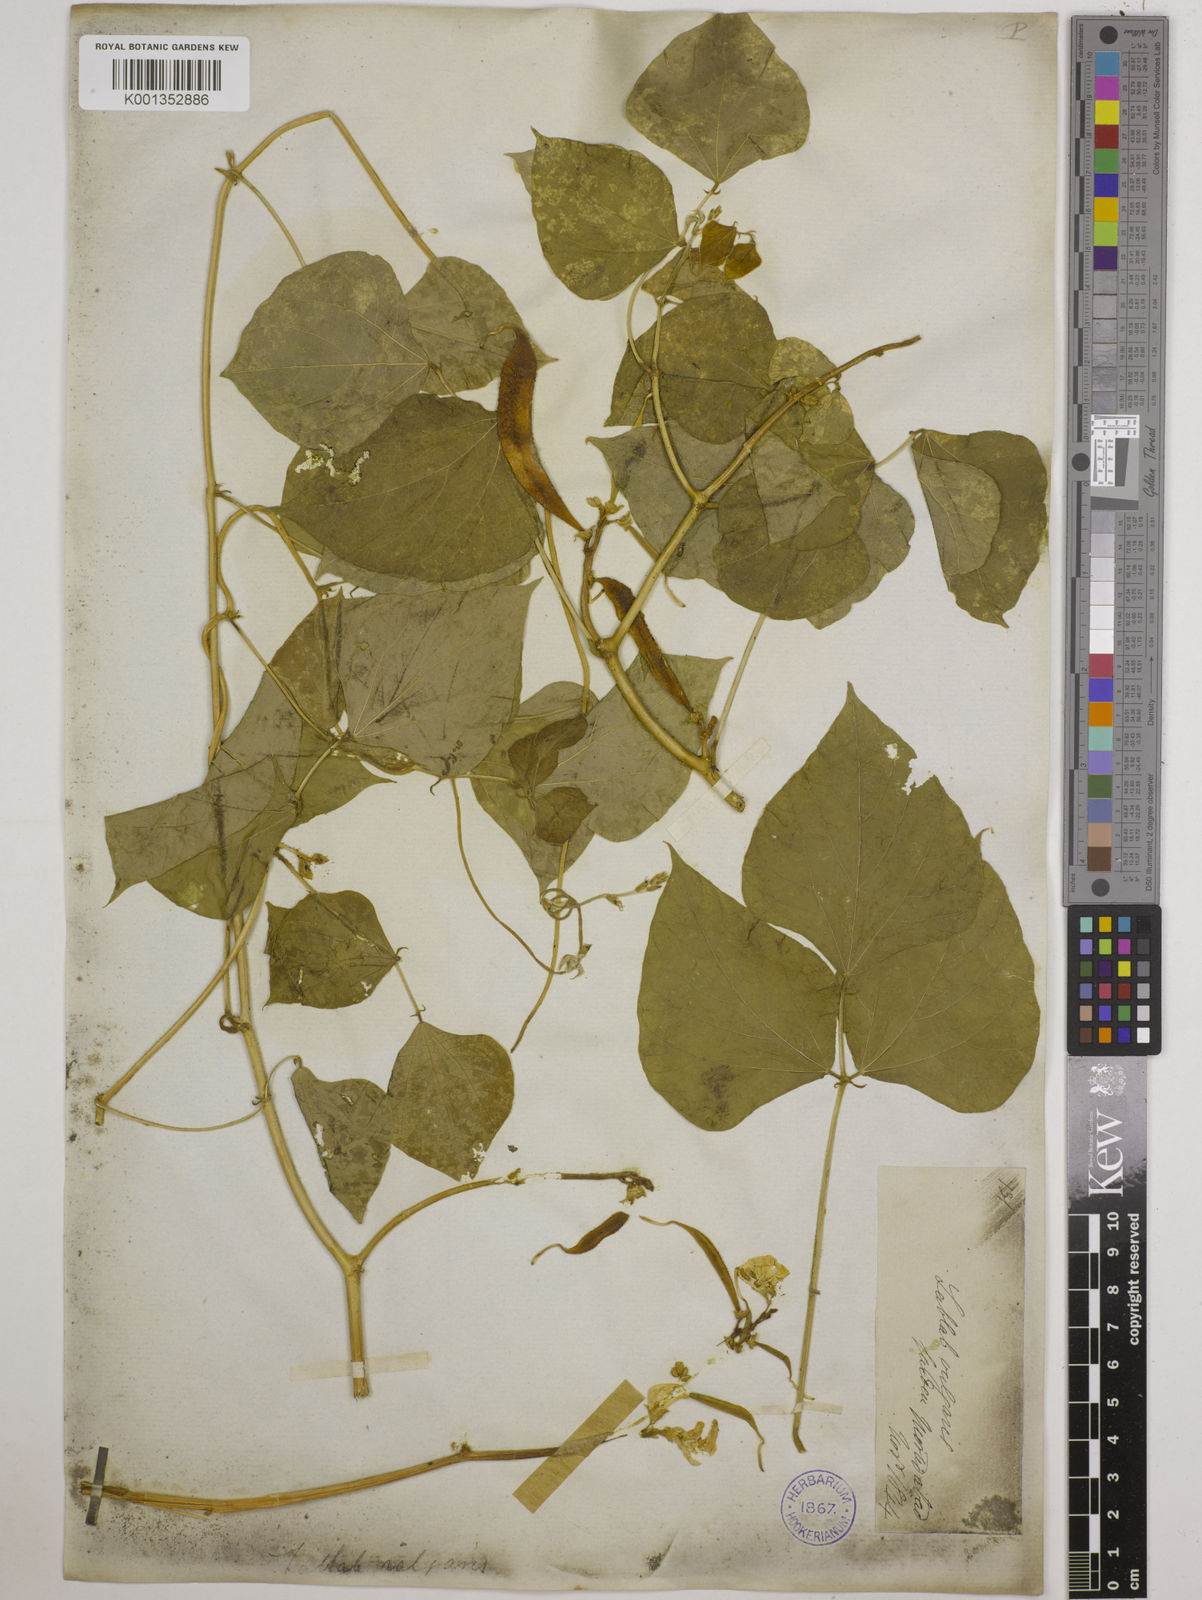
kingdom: Plantae
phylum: Tracheophyta
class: Magnoliopsida
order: Fabales
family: Fabaceae
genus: Lablab
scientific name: Lablab purpureus
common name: Lablab-bean
